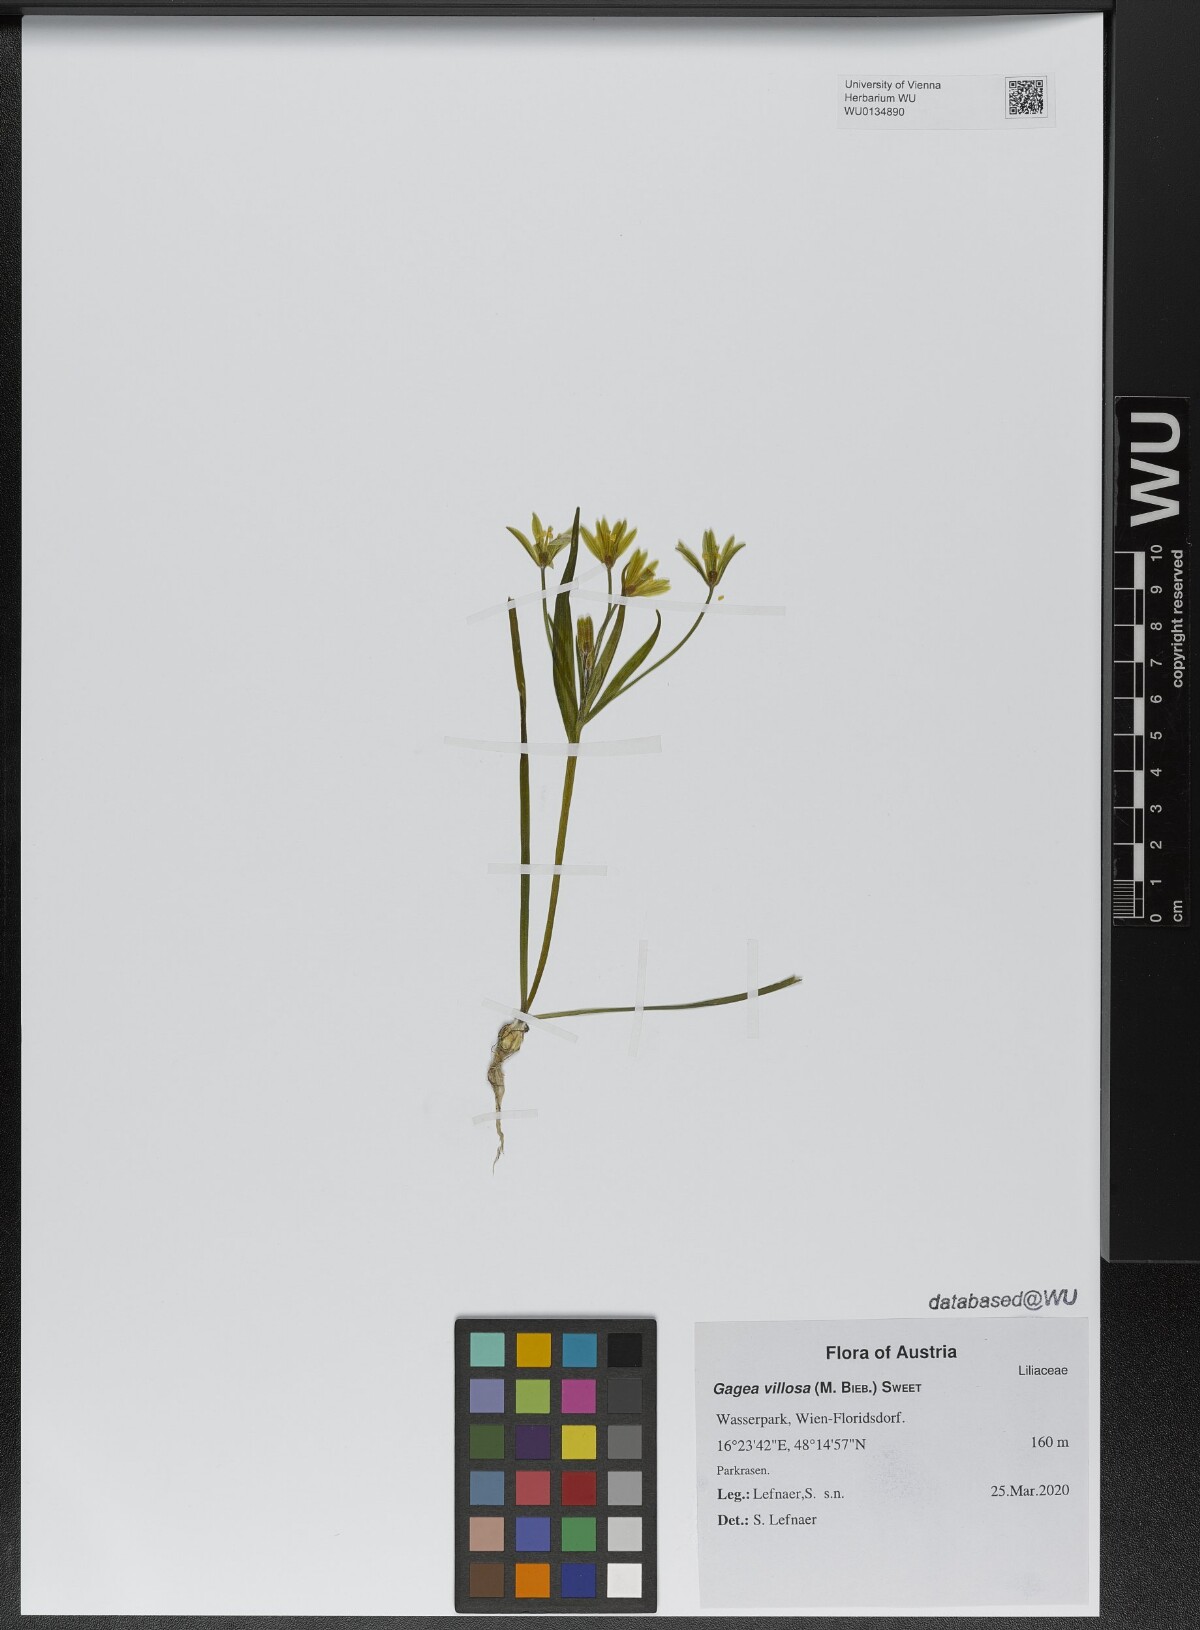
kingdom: Plantae
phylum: Tracheophyta
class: Liliopsida
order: Liliales
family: Liliaceae
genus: Gagea
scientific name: Gagea villosa
